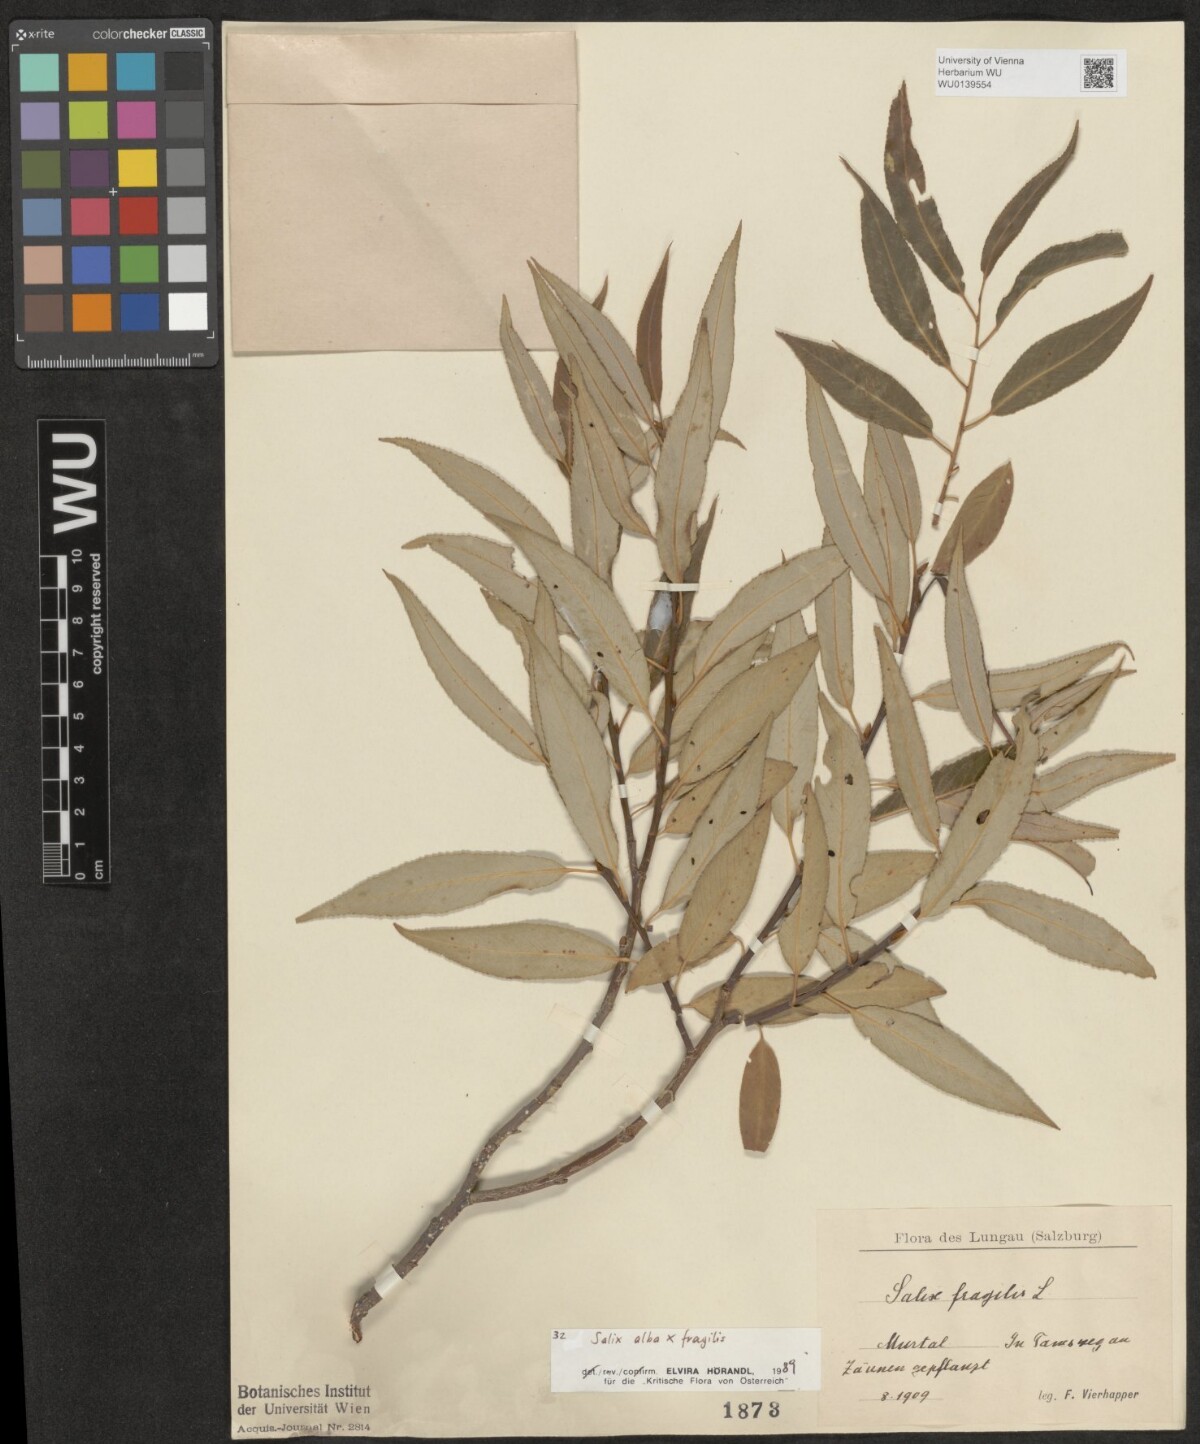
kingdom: Plantae
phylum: Tracheophyta
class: Magnoliopsida
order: Malpighiales
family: Salicaceae
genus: Salix
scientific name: Salix rubens
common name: Hybrid crack willow
